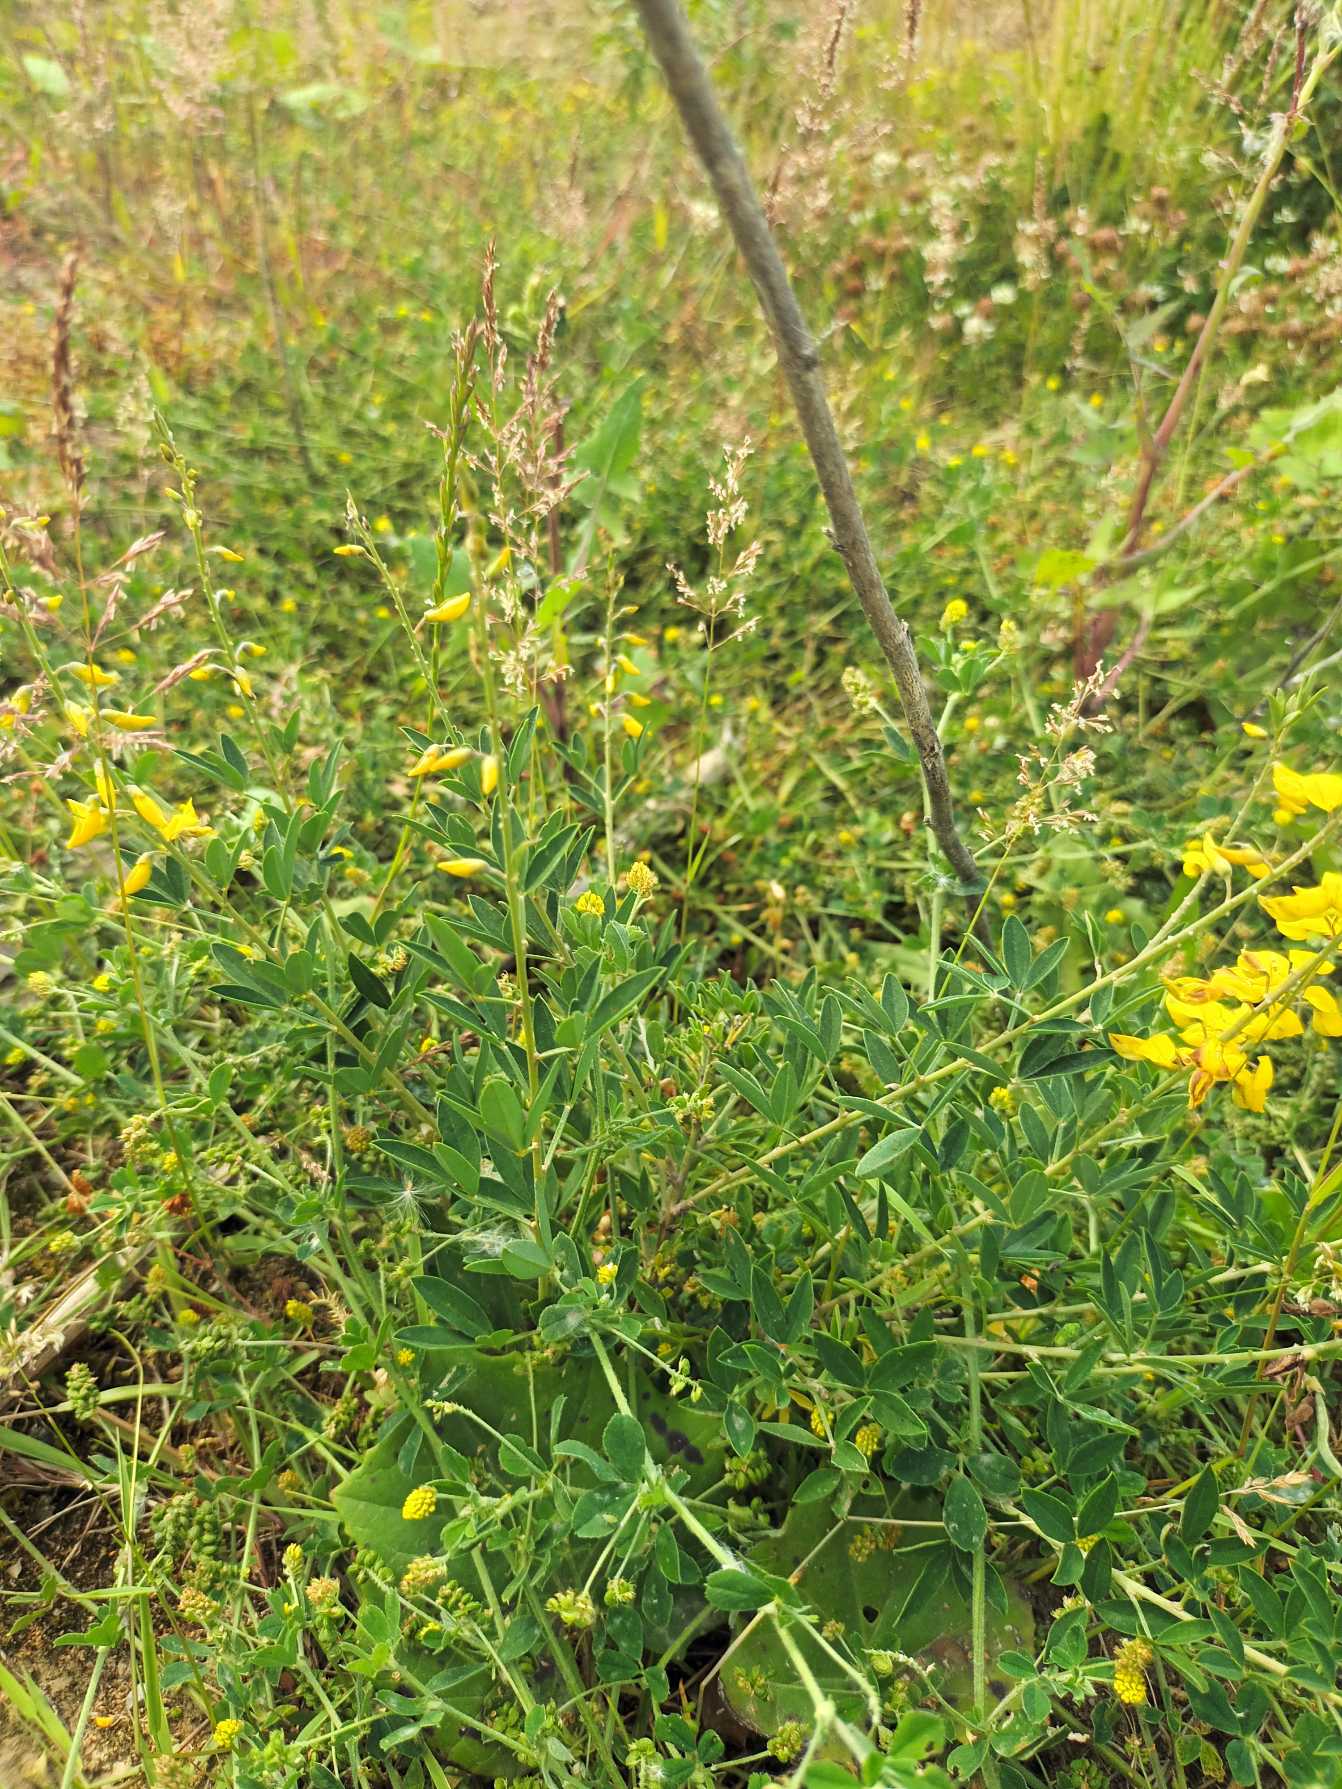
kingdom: Plantae
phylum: Tracheophyta
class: Magnoliopsida
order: Fabales
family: Fabaceae
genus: Cytisus
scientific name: Cytisus nigricans
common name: Sort gyvel
